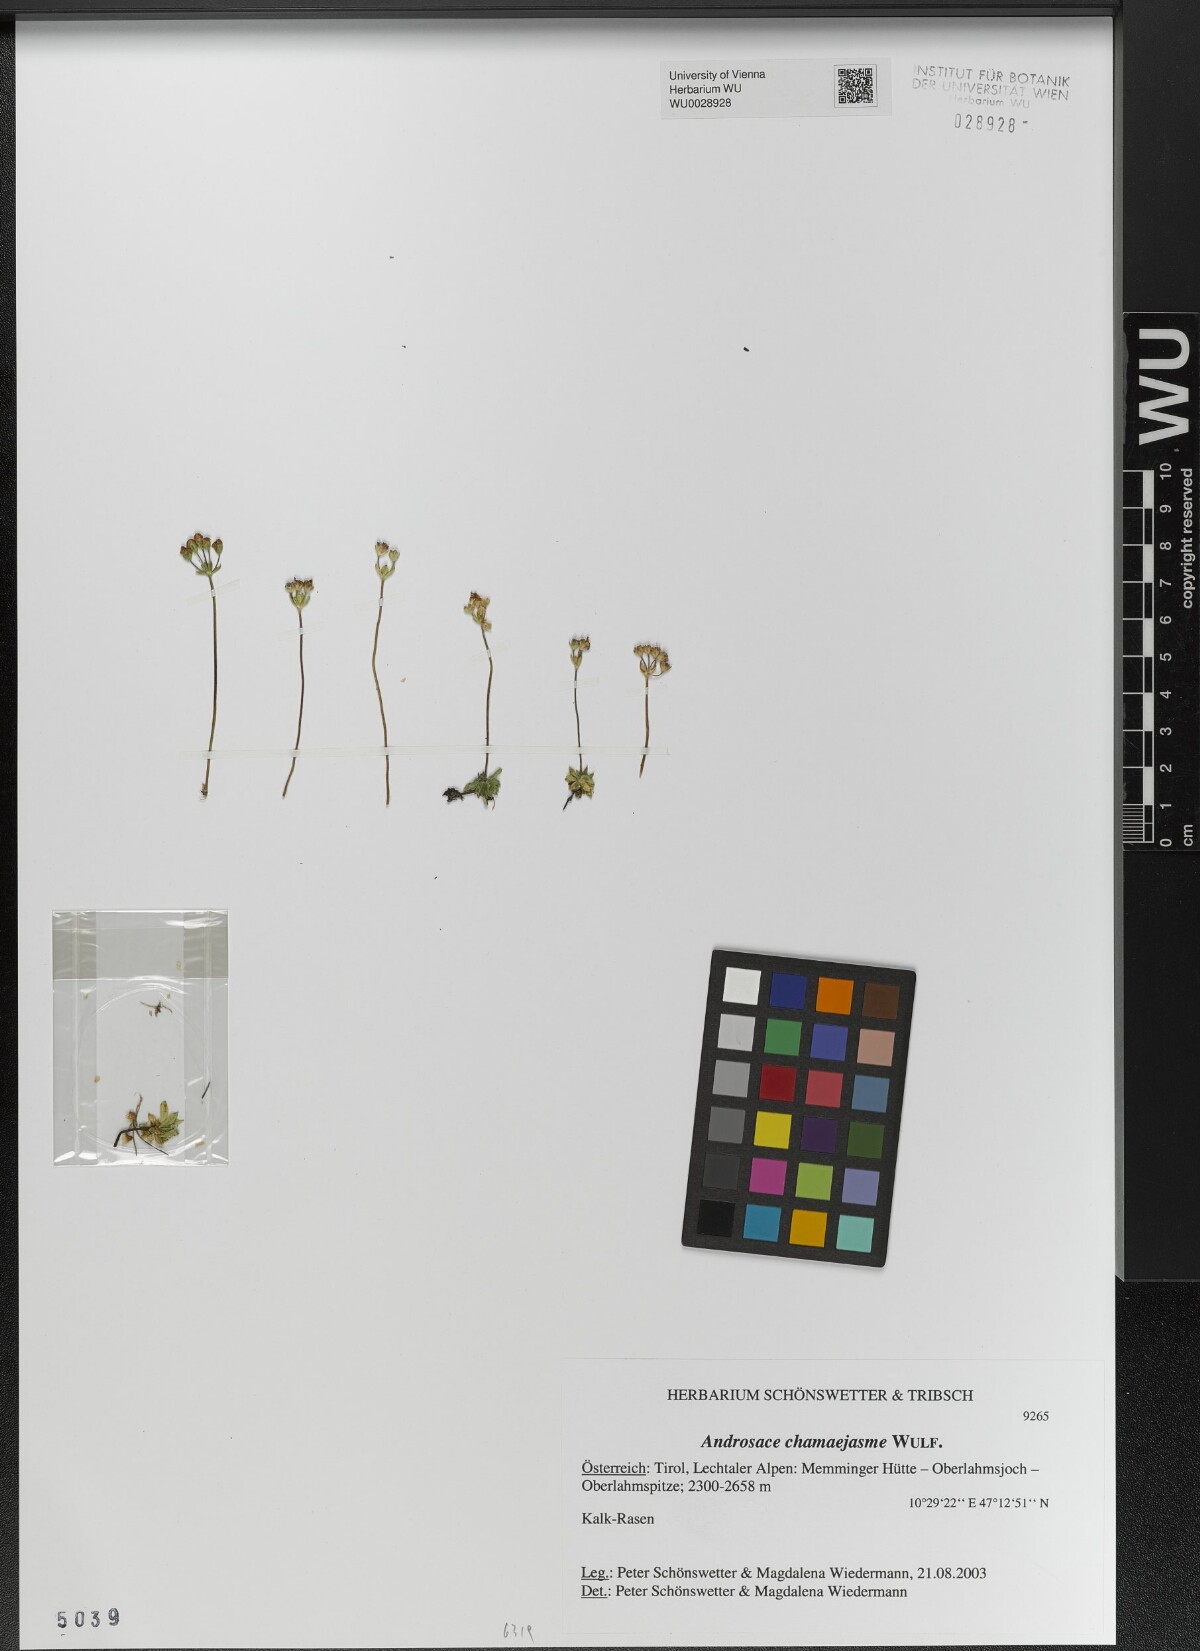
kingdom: Plantae
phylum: Tracheophyta
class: Magnoliopsida
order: Ericales
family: Primulaceae
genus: Androsace
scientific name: Androsace chamaejasme
